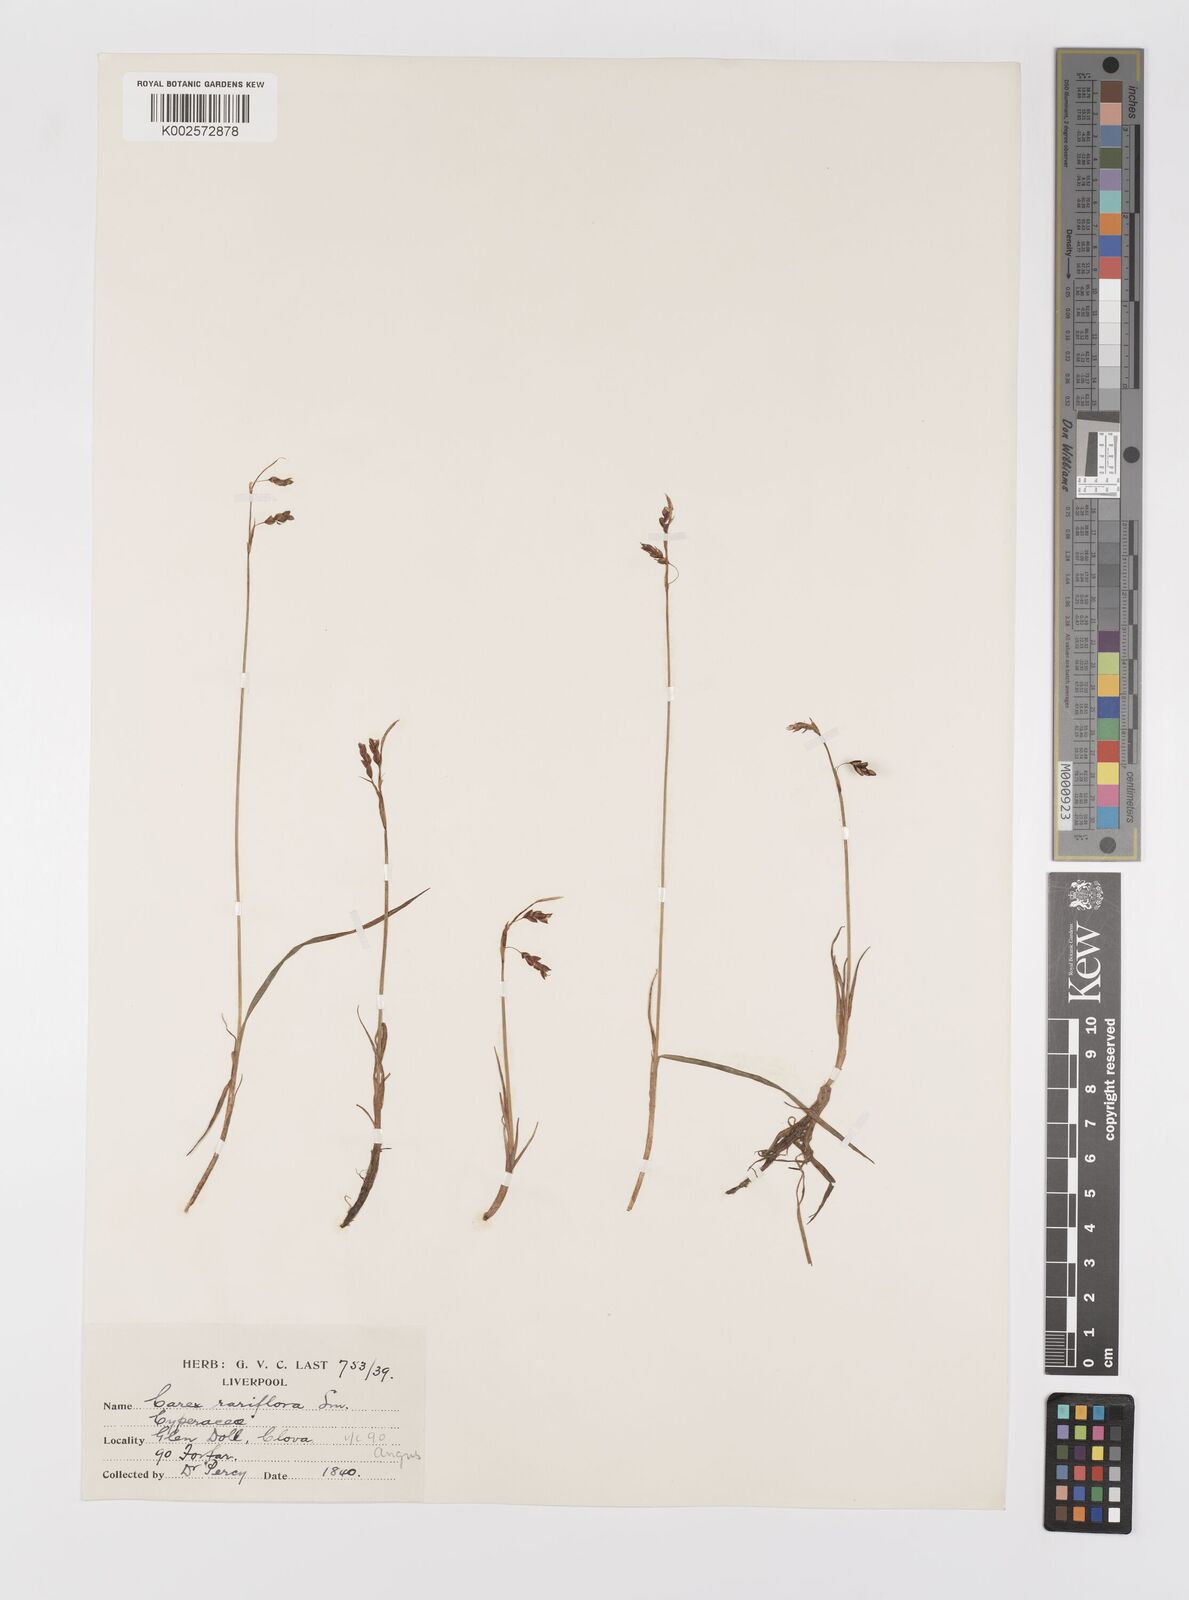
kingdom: Plantae
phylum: Tracheophyta
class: Liliopsida
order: Poales
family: Cyperaceae
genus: Carex
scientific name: Carex rariflora
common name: Loose-flowered alpine sedge
